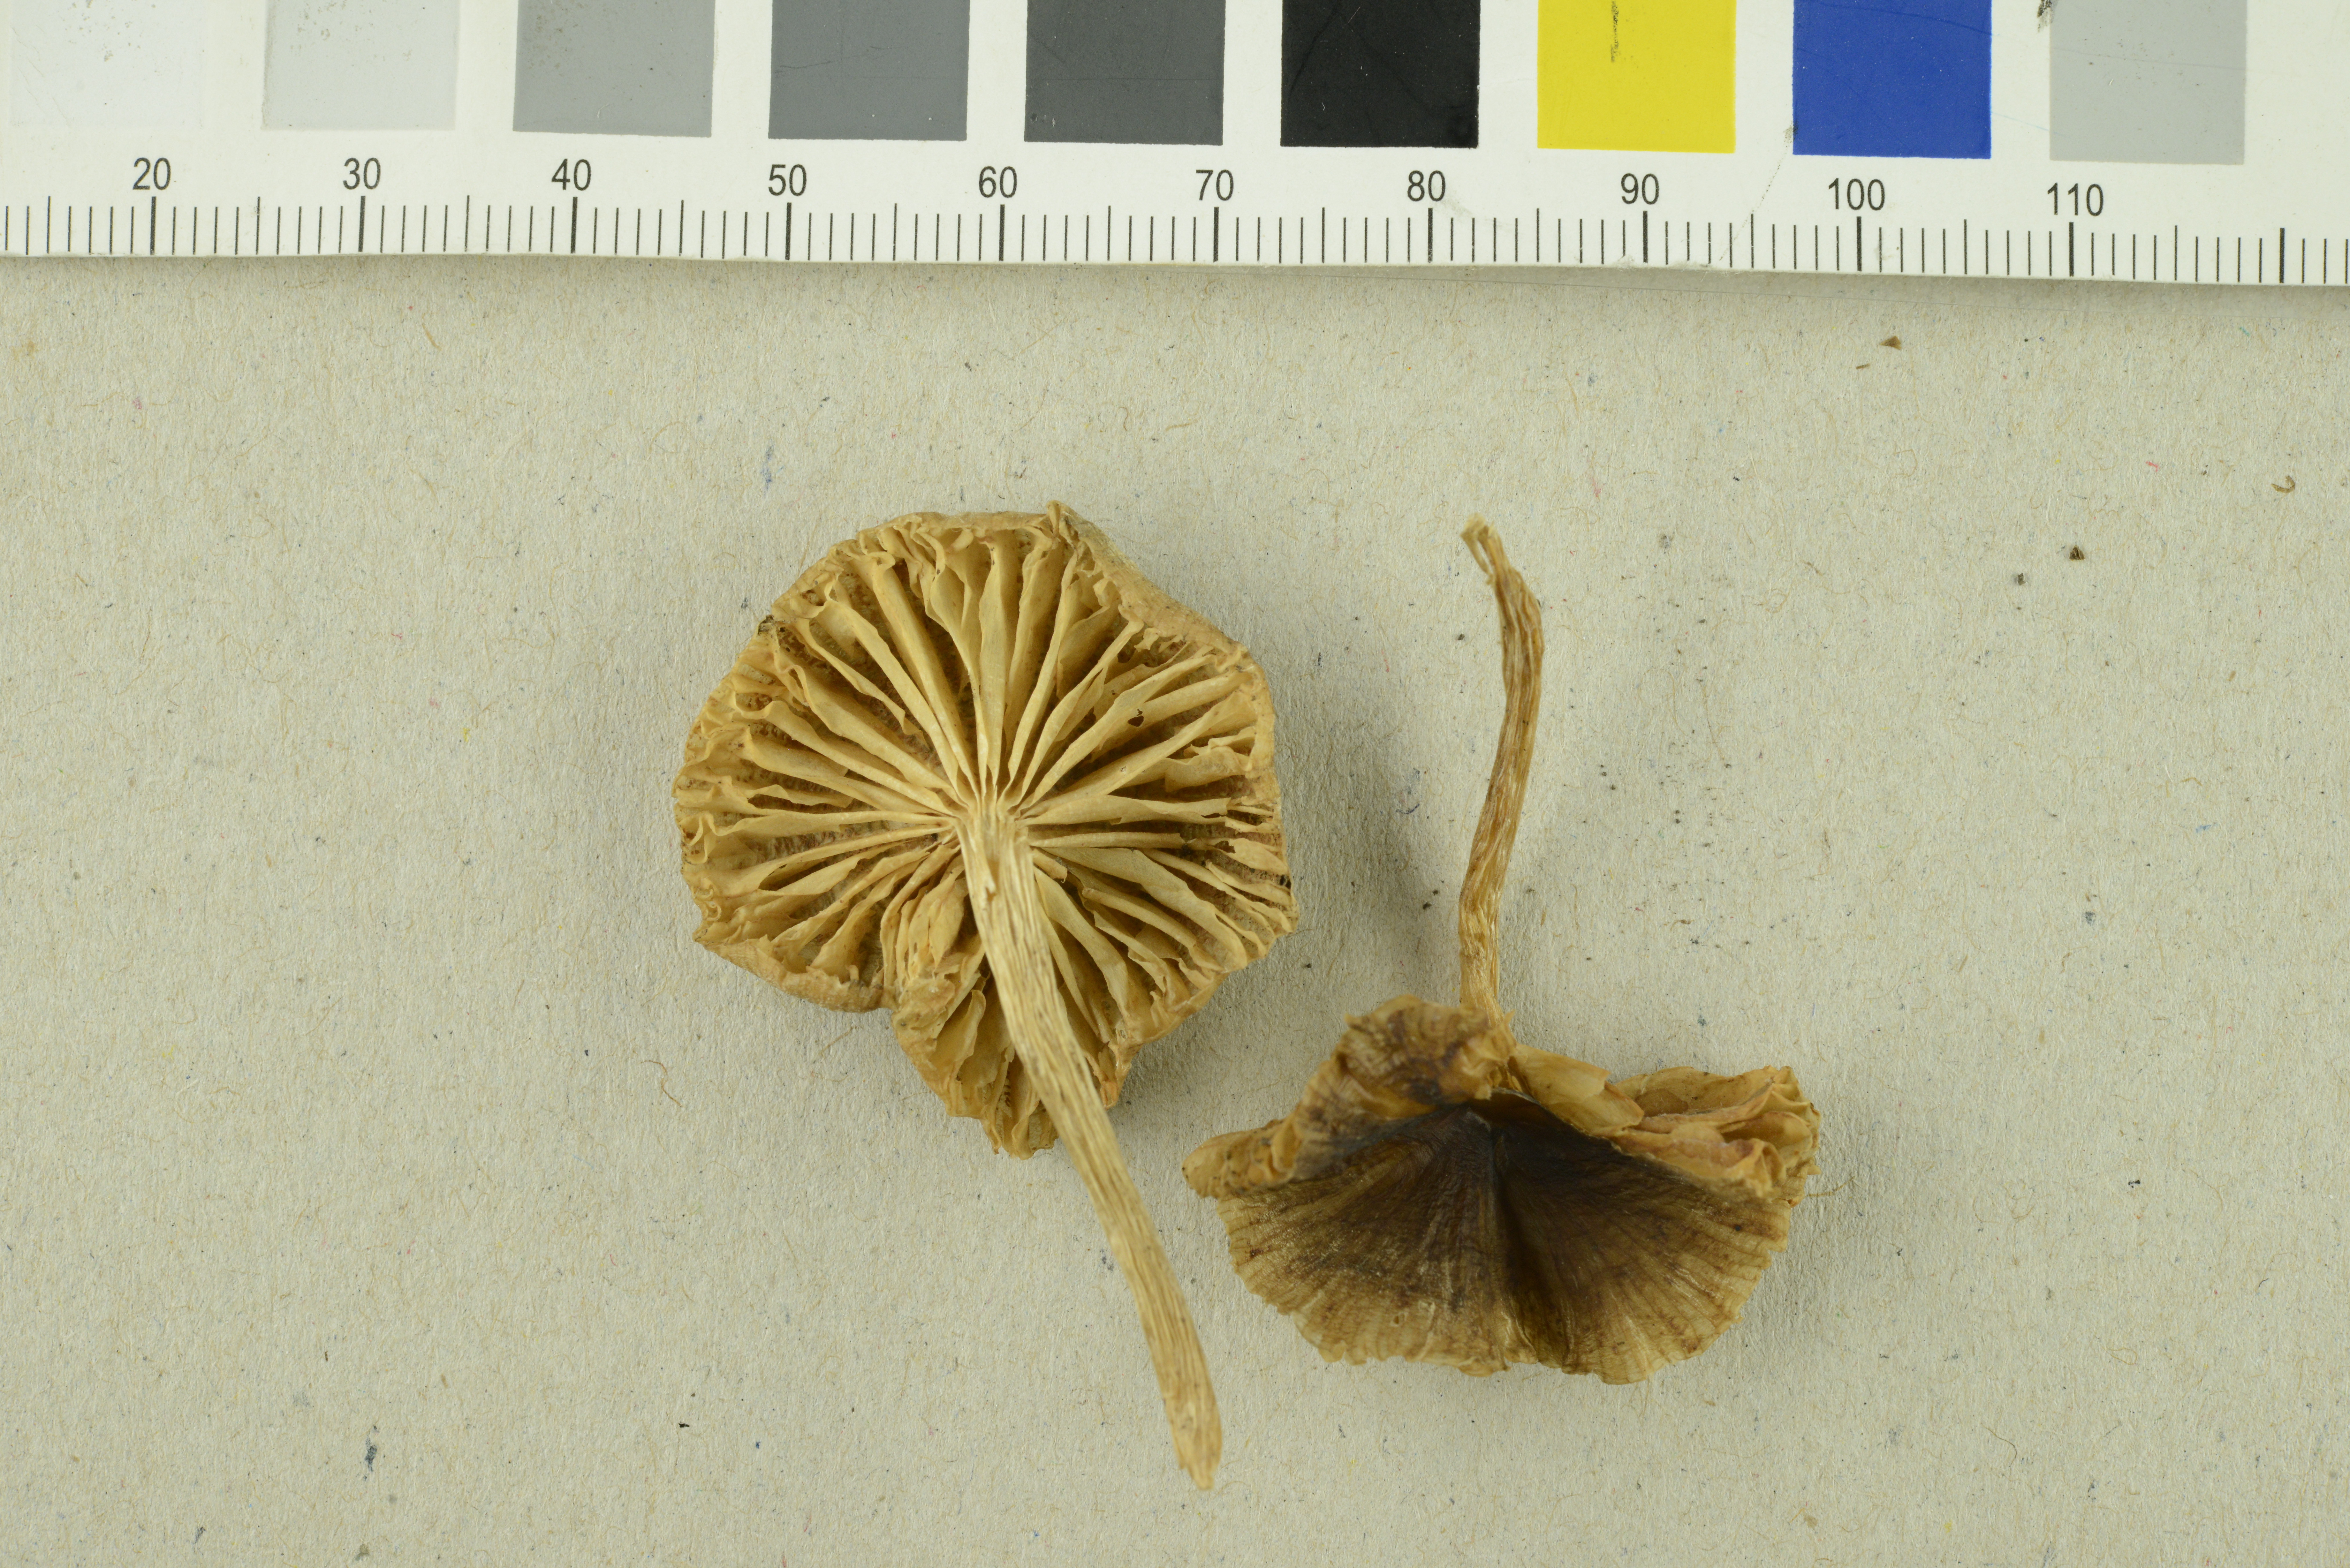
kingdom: Fungi
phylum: Basidiomycota
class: Agaricomycetes
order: Agaricales
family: Entolomataceae
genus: Entoloma
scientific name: Entoloma silvae-frondosae
